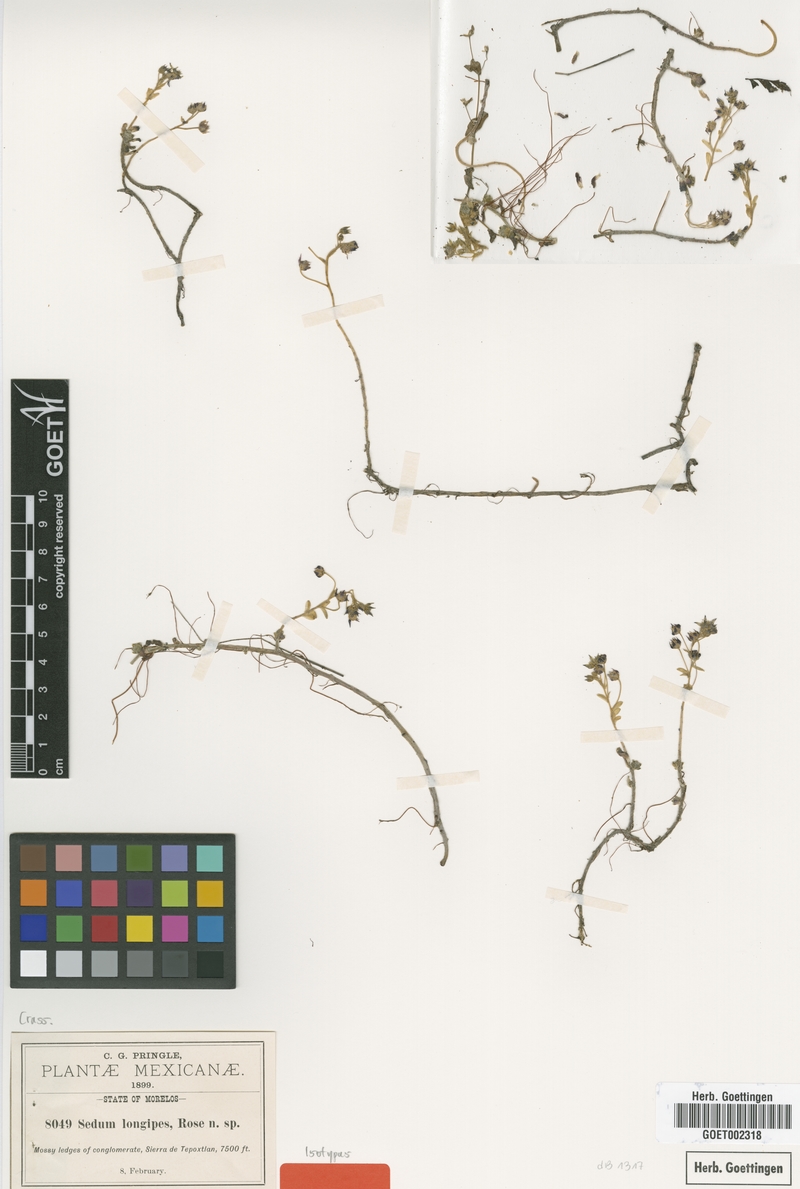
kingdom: Plantae
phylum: Tracheophyta
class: Magnoliopsida
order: Saxifragales
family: Crassulaceae
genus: Sedum
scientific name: Sedum longipes
